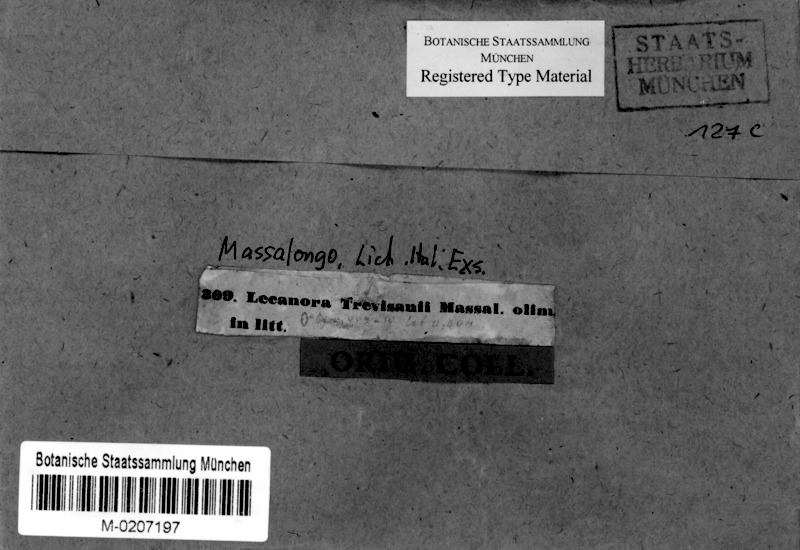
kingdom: Fungi
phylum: Ascomycota
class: Lecanoromycetes
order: Lecanorales
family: Lecanoraceae
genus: Lecanora
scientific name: Lecanora subcarnea
